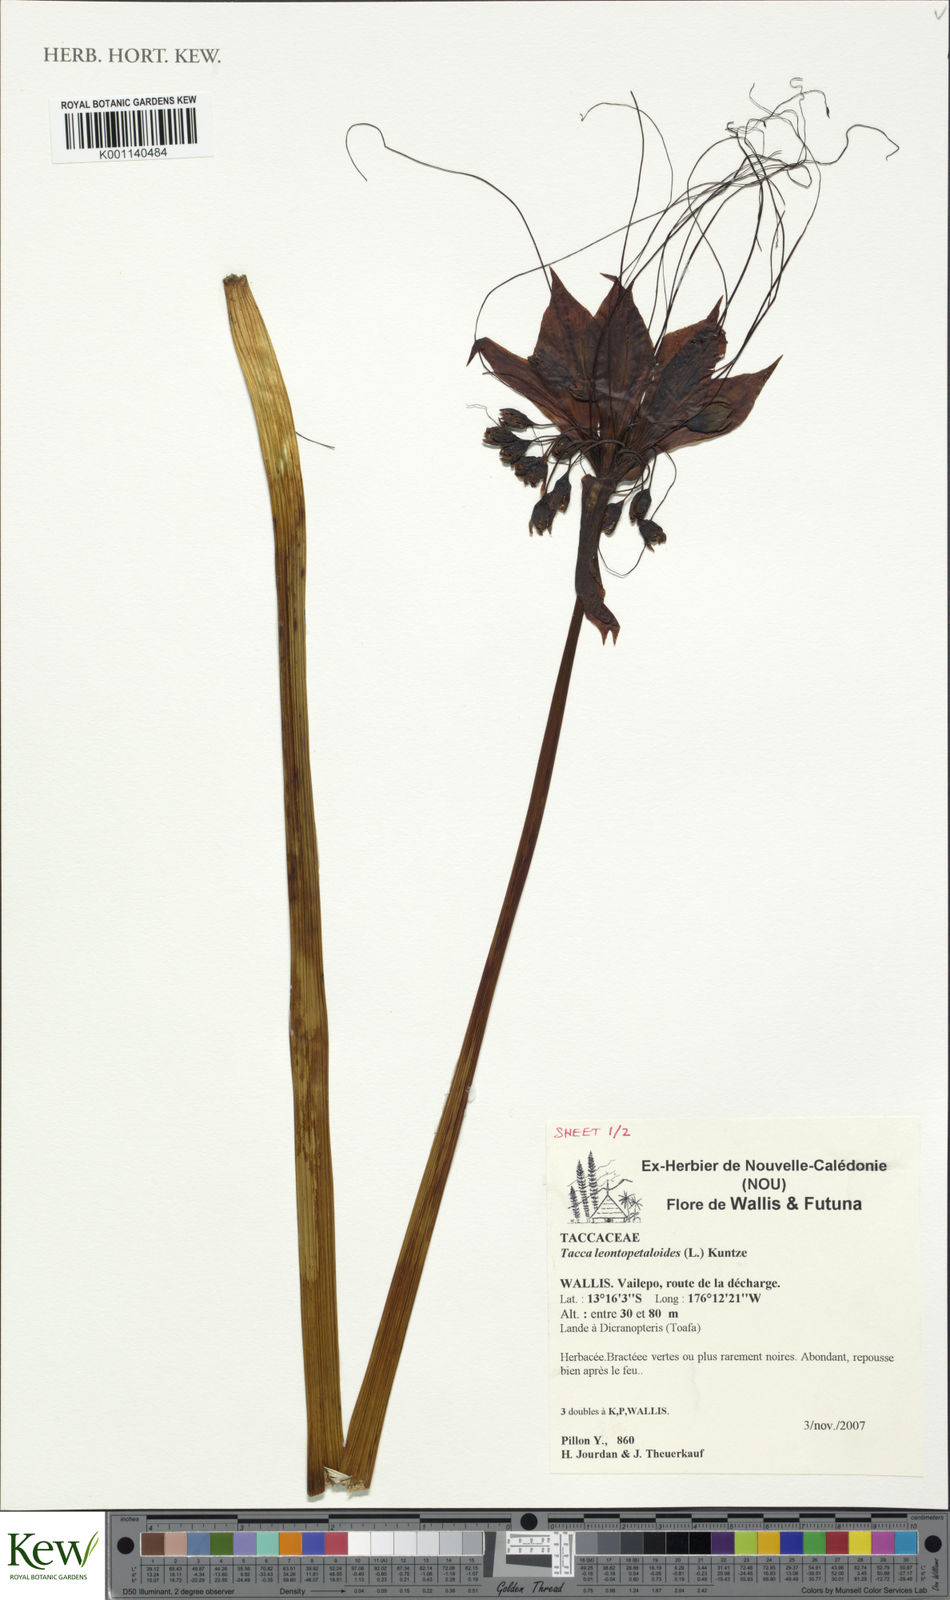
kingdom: Plantae
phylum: Tracheophyta
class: Liliopsida
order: Dioscoreales
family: Dioscoreaceae
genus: Tacca
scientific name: Tacca leontopetaloides
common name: Arrowroot
